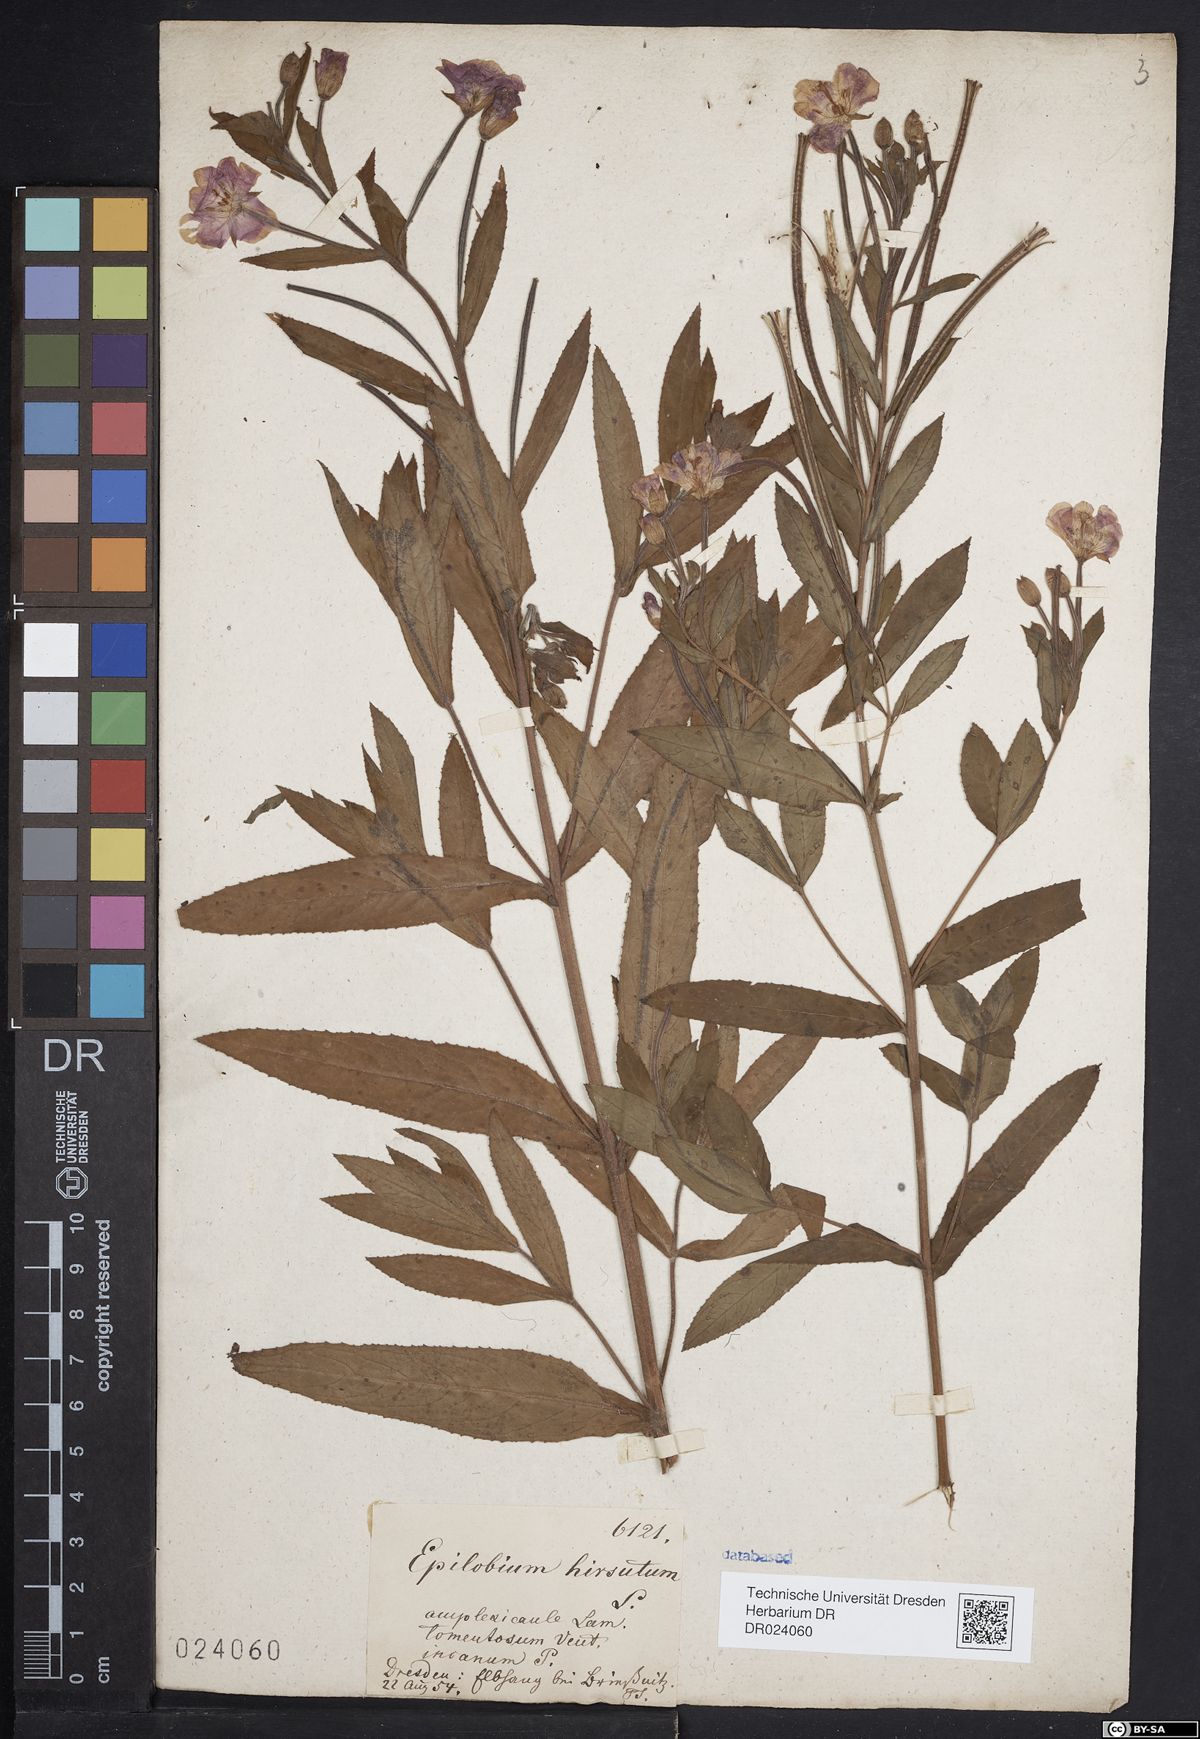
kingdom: Plantae
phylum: Tracheophyta
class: Magnoliopsida
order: Myrtales
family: Onagraceae
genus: Epilobium
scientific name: Epilobium hirsutum
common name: Great willowherb
